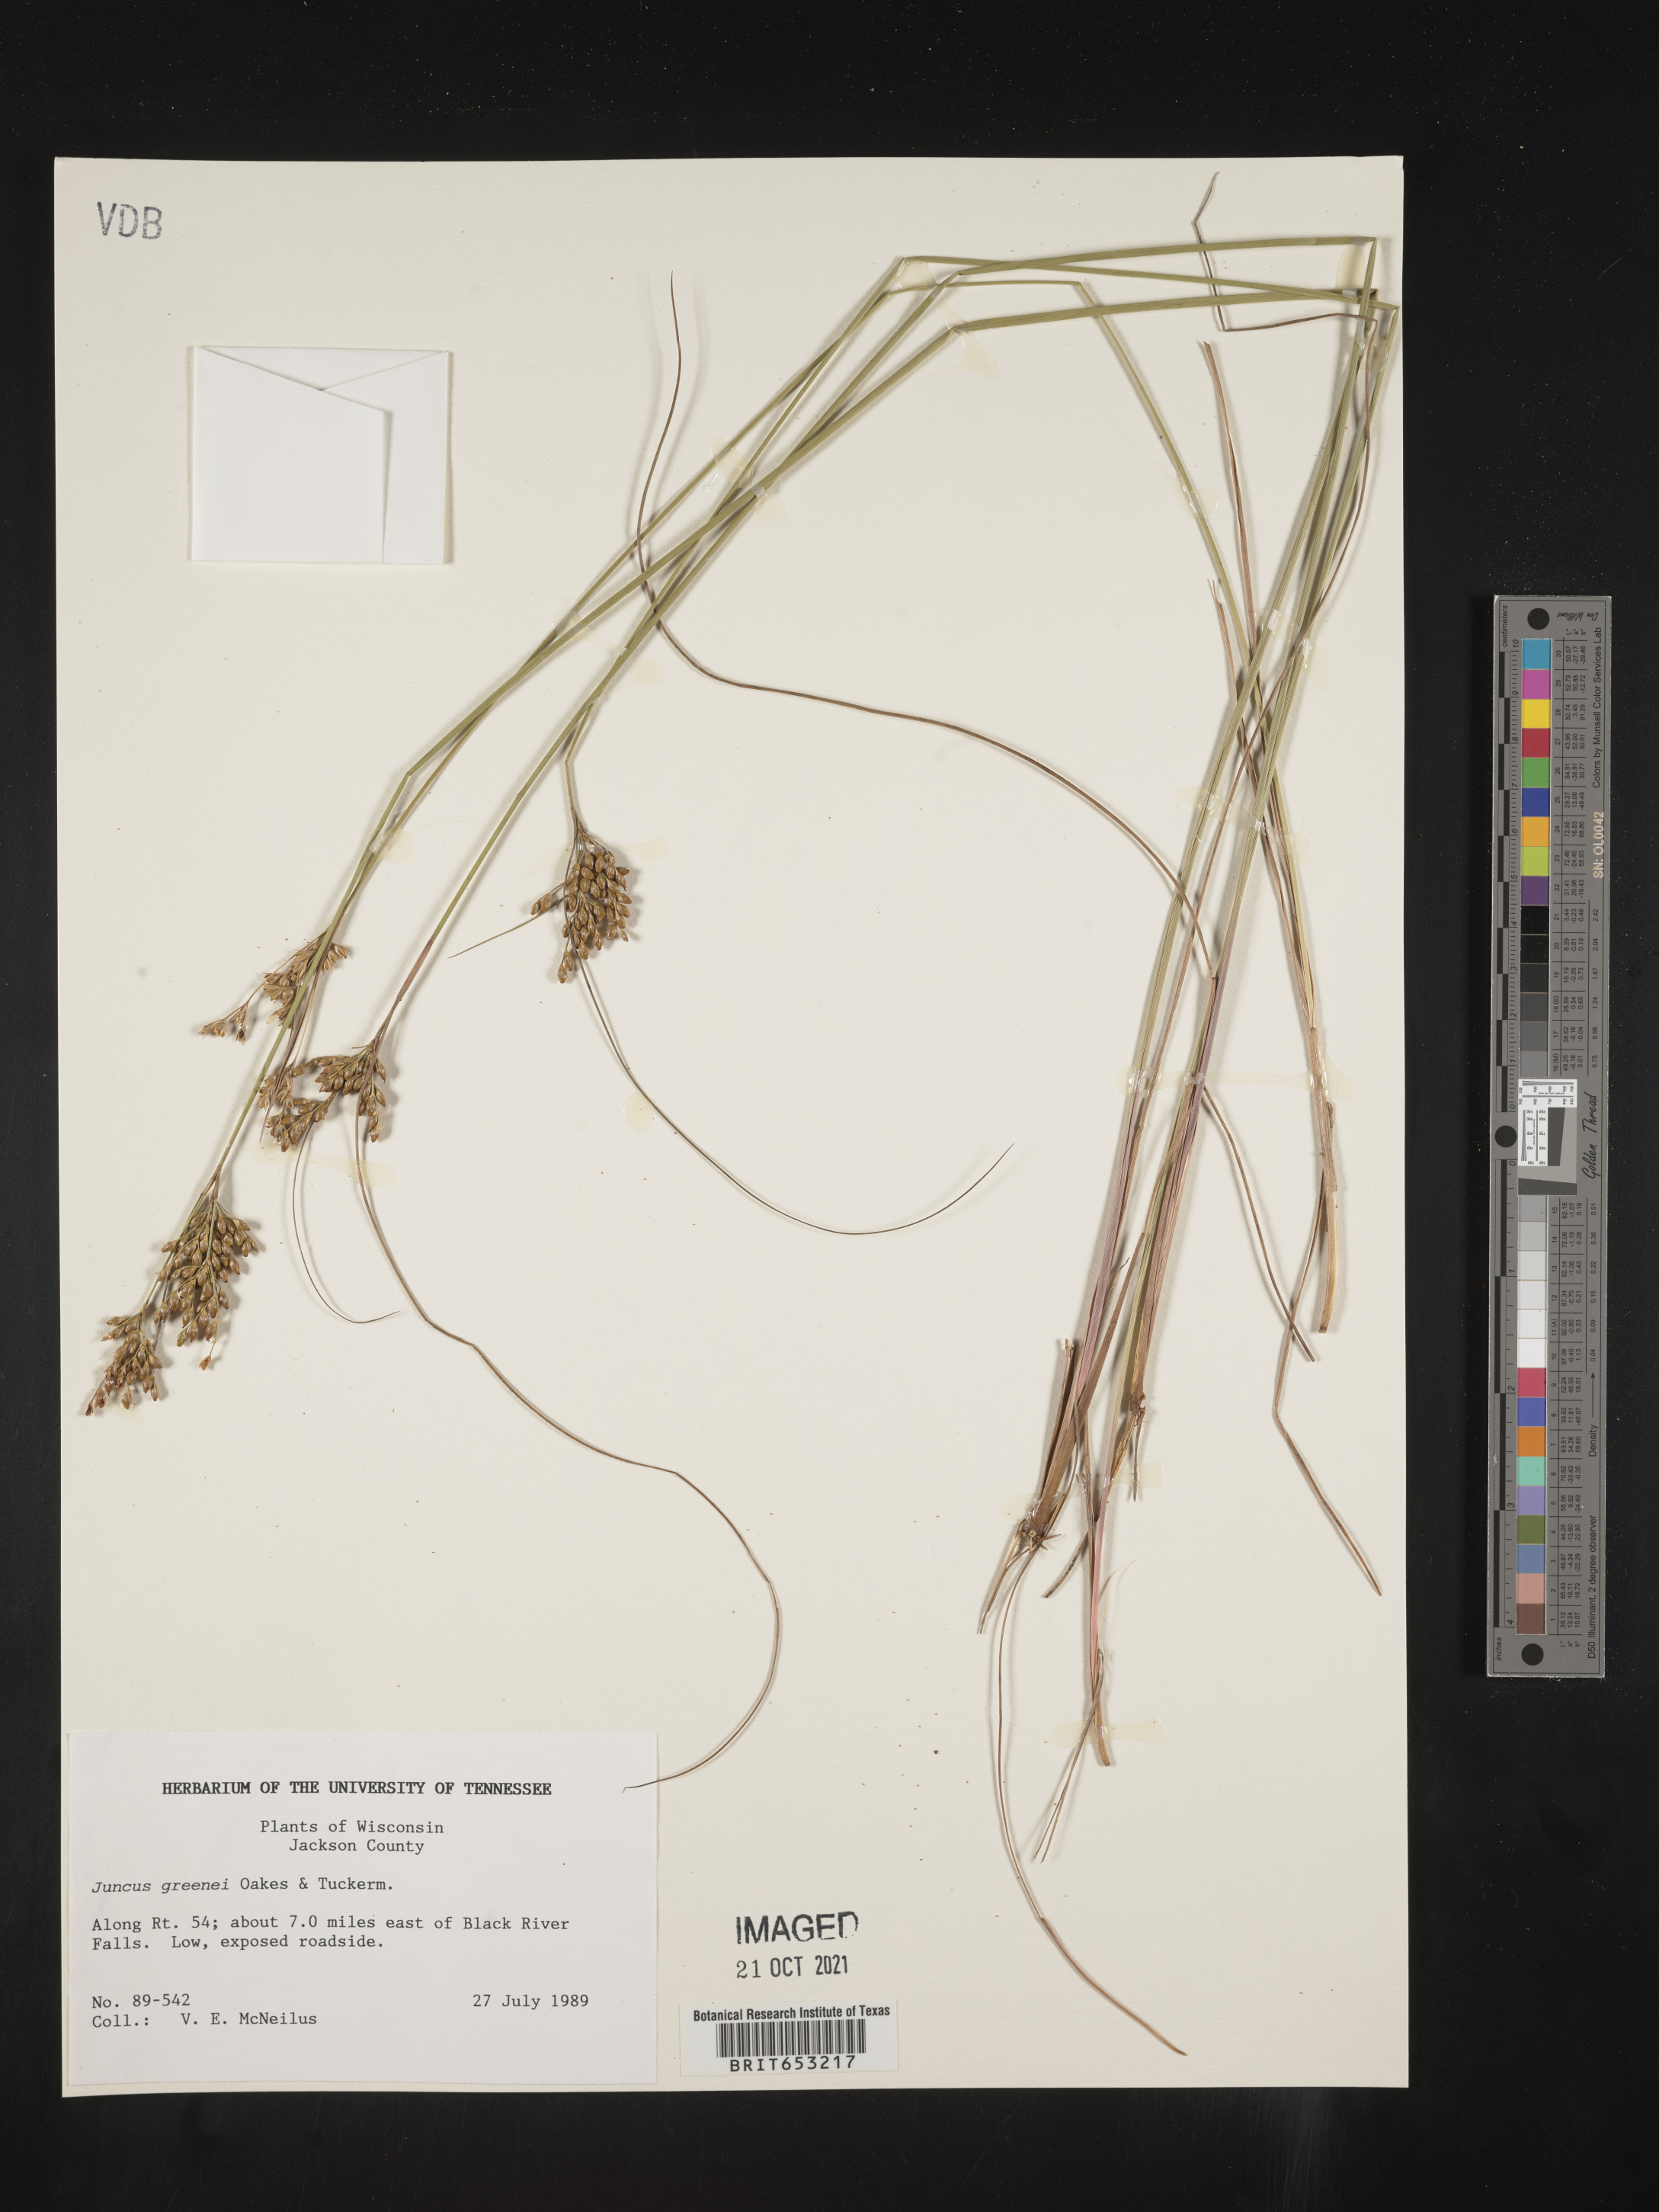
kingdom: Plantae
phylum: Tracheophyta
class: Liliopsida
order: Poales
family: Juncaceae
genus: Juncus
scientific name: Juncus greenei
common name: Greene's rush
